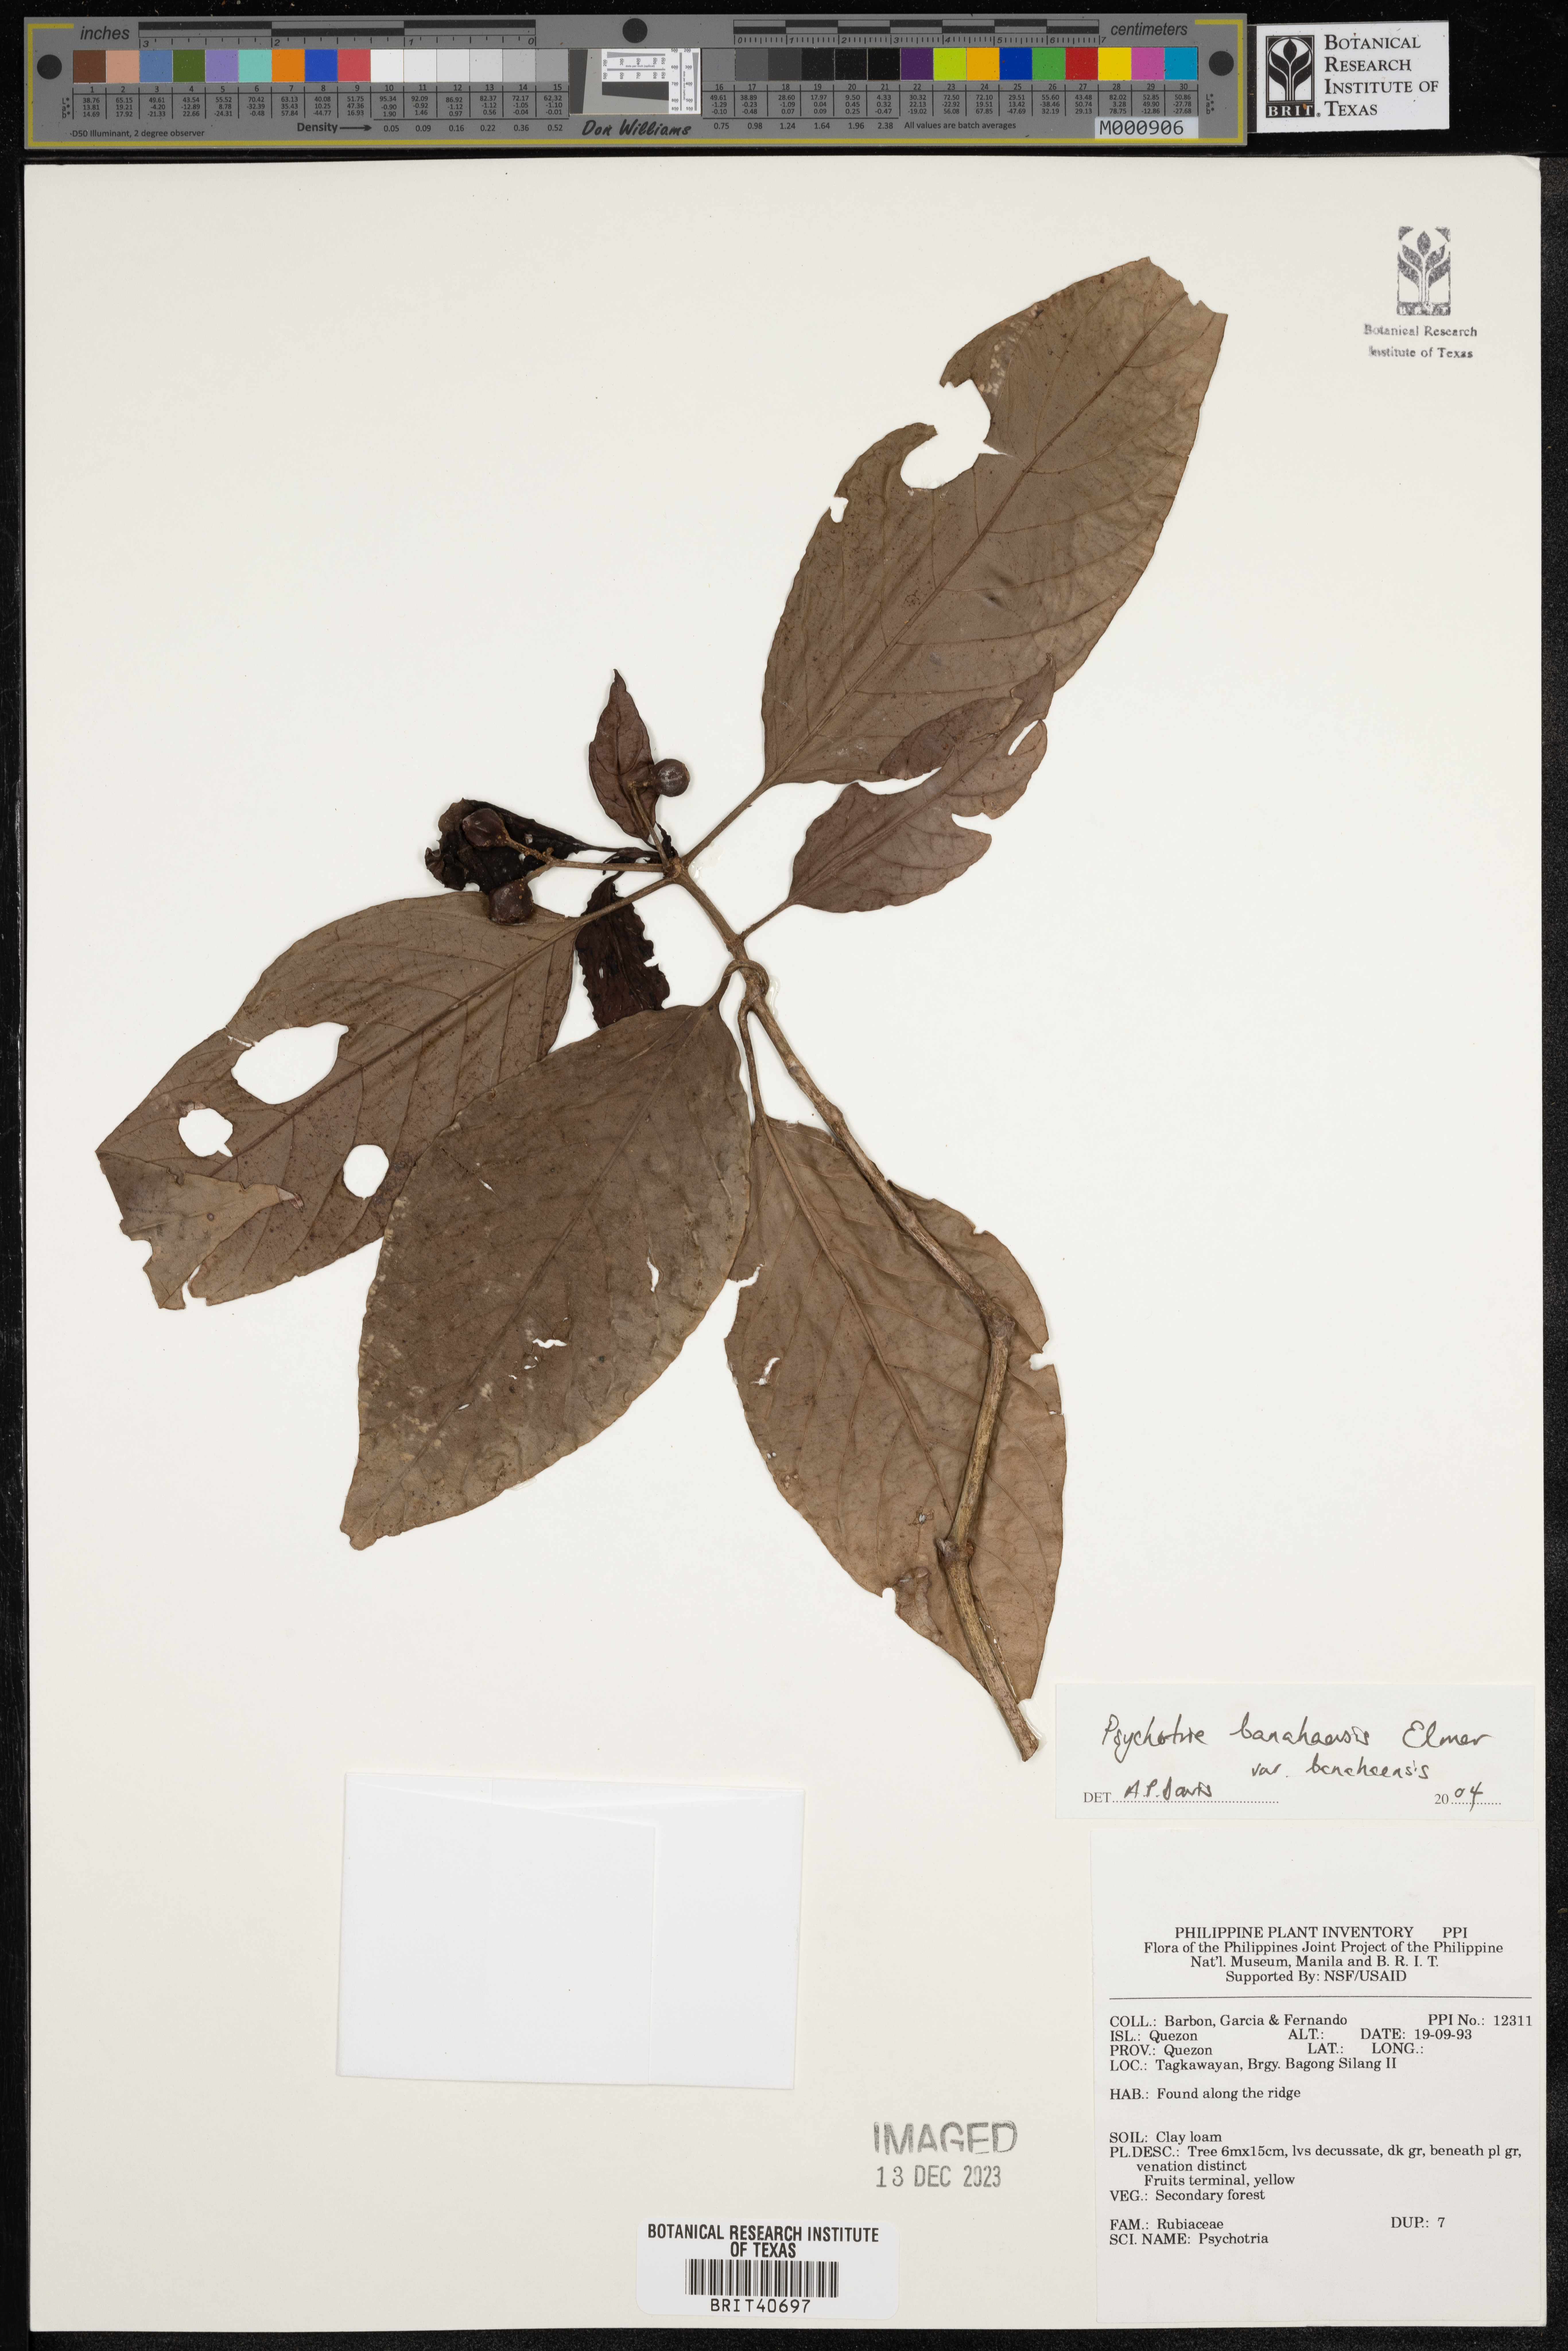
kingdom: Plantae
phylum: Tracheophyta
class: Magnoliopsida
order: Gentianales
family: Rubiaceae
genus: Psychotria
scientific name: Psychotria banahaensis
